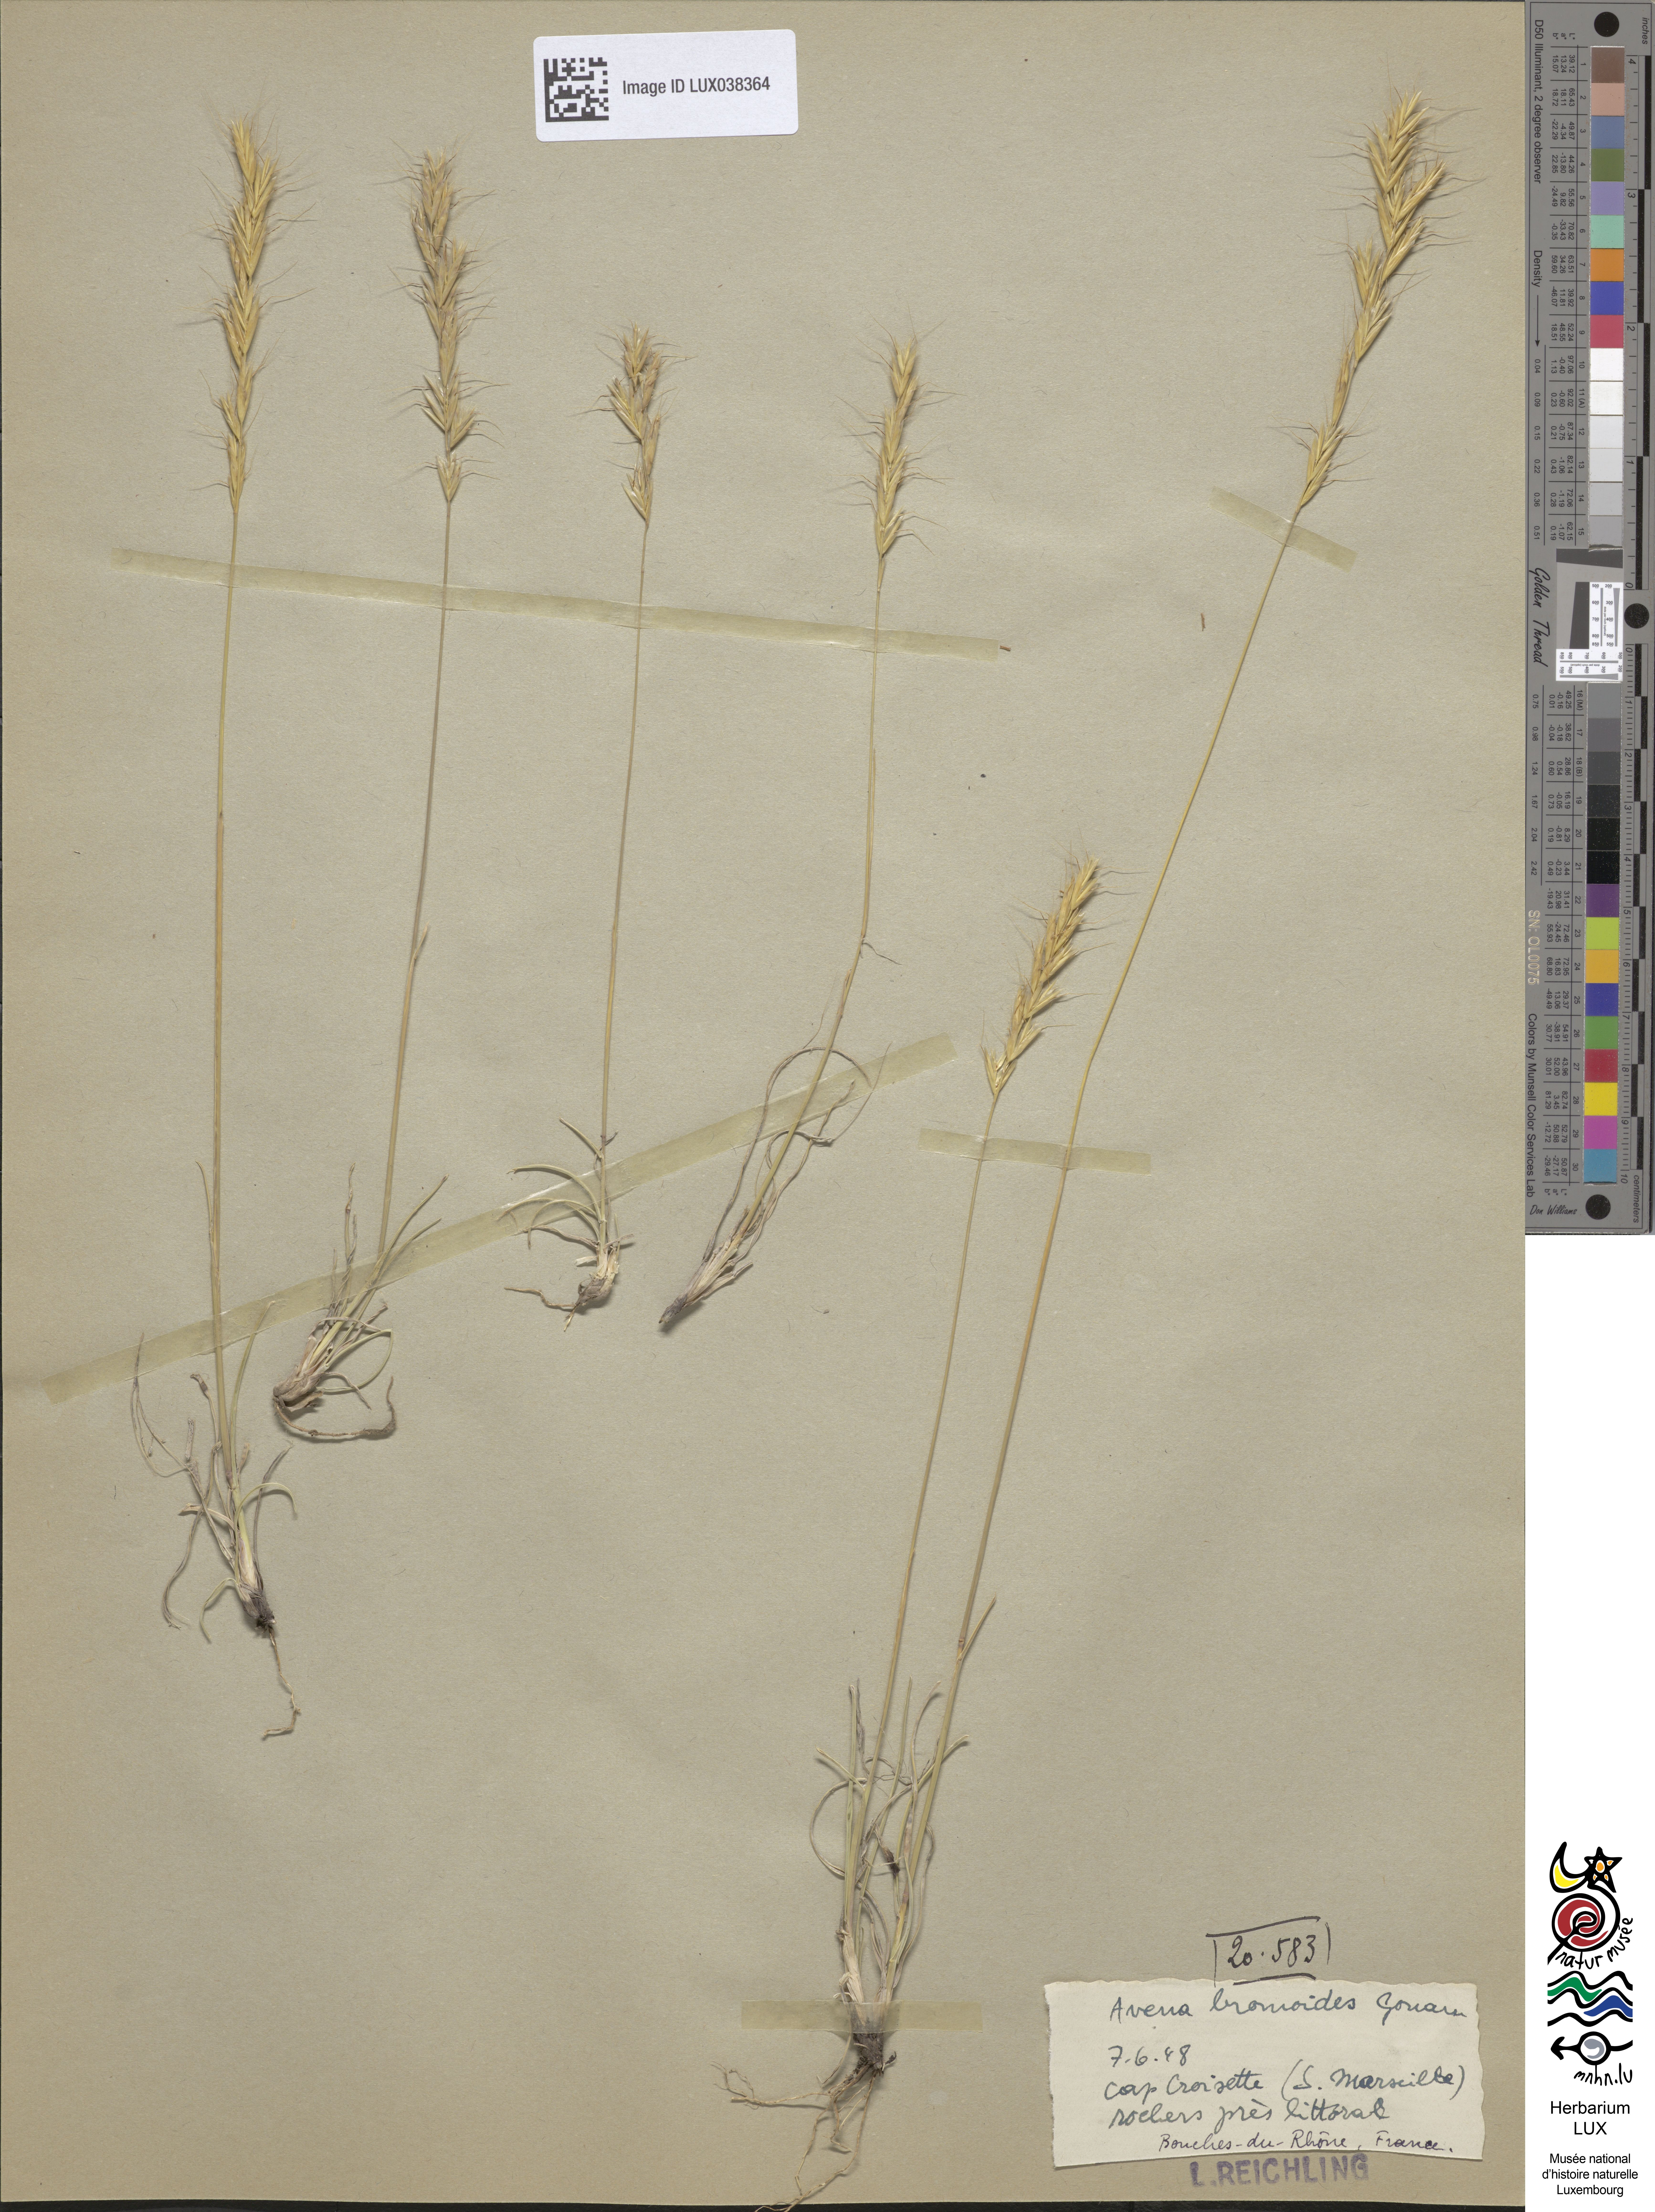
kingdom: Plantae
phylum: Tracheophyta
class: Liliopsida
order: Poales
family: Poaceae
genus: Helictochloa
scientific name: Helictochloa bromoides
